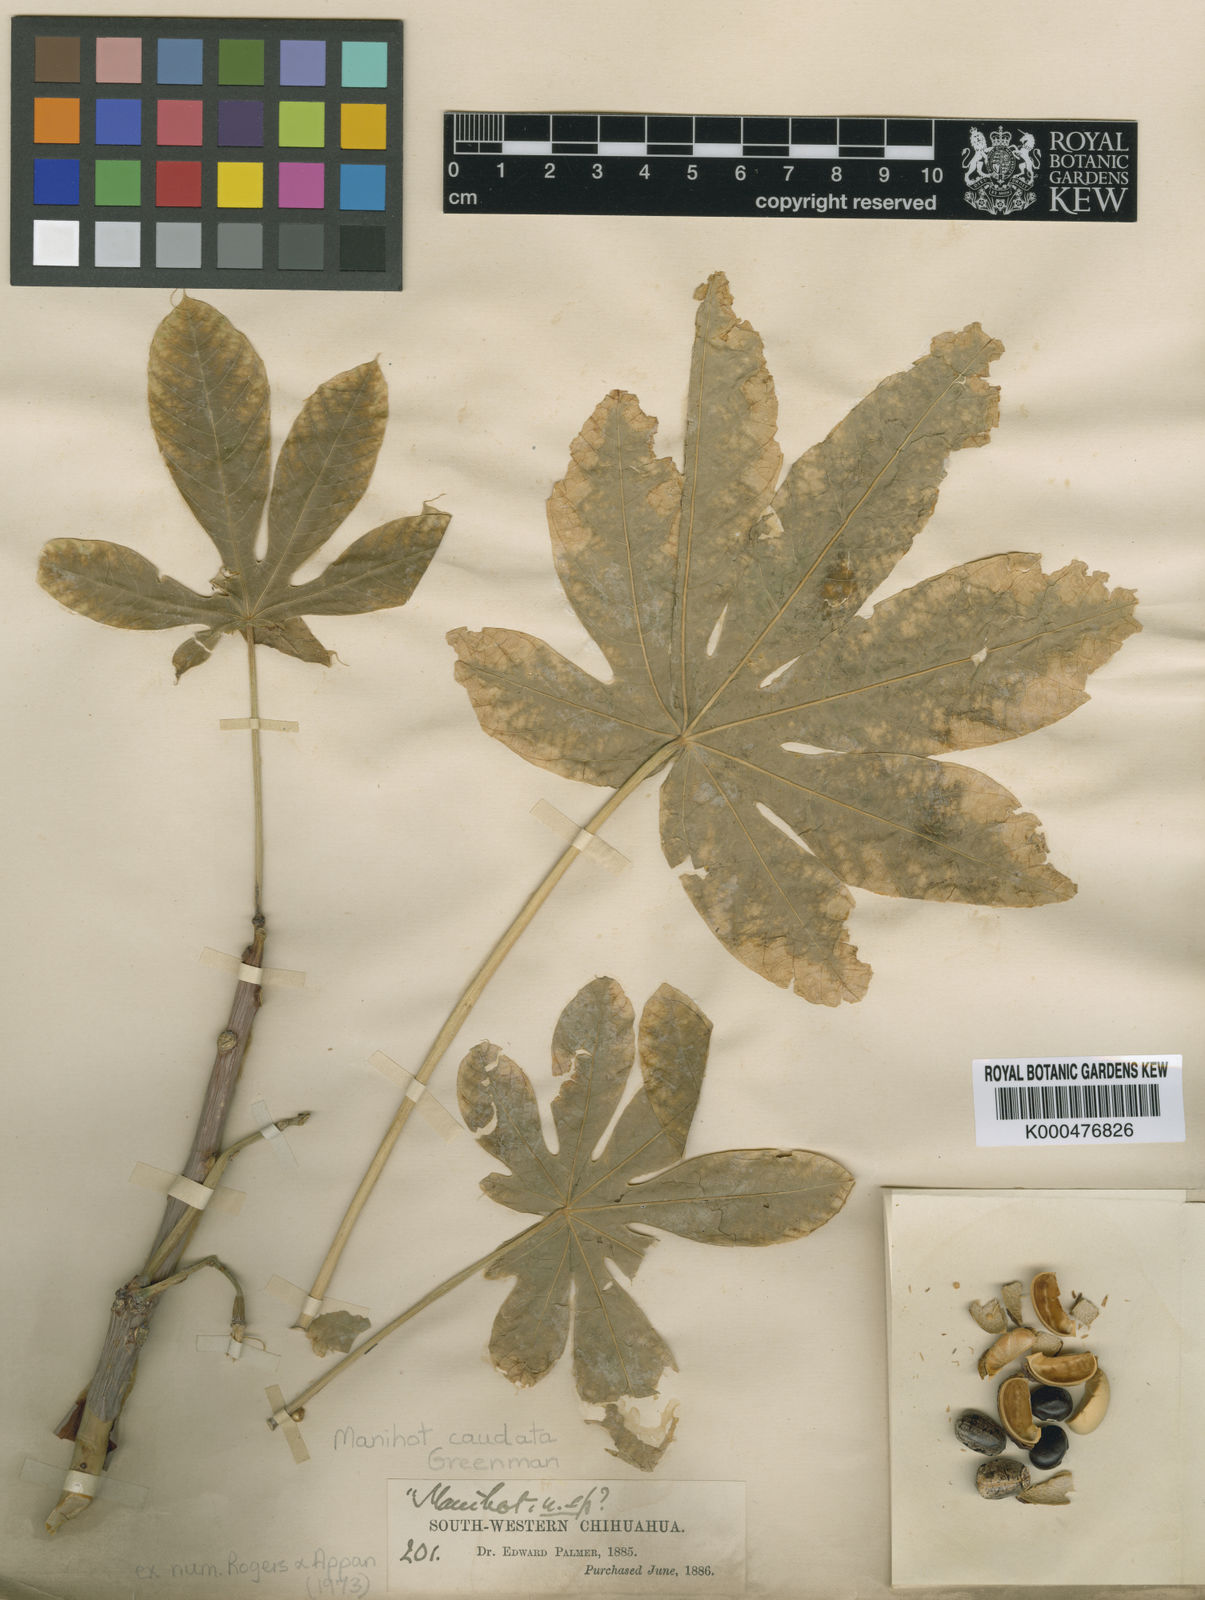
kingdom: Plantae
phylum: Tracheophyta
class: Magnoliopsida
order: Malpighiales
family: Euphorbiaceae
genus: Manihot
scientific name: Manihot caudata
